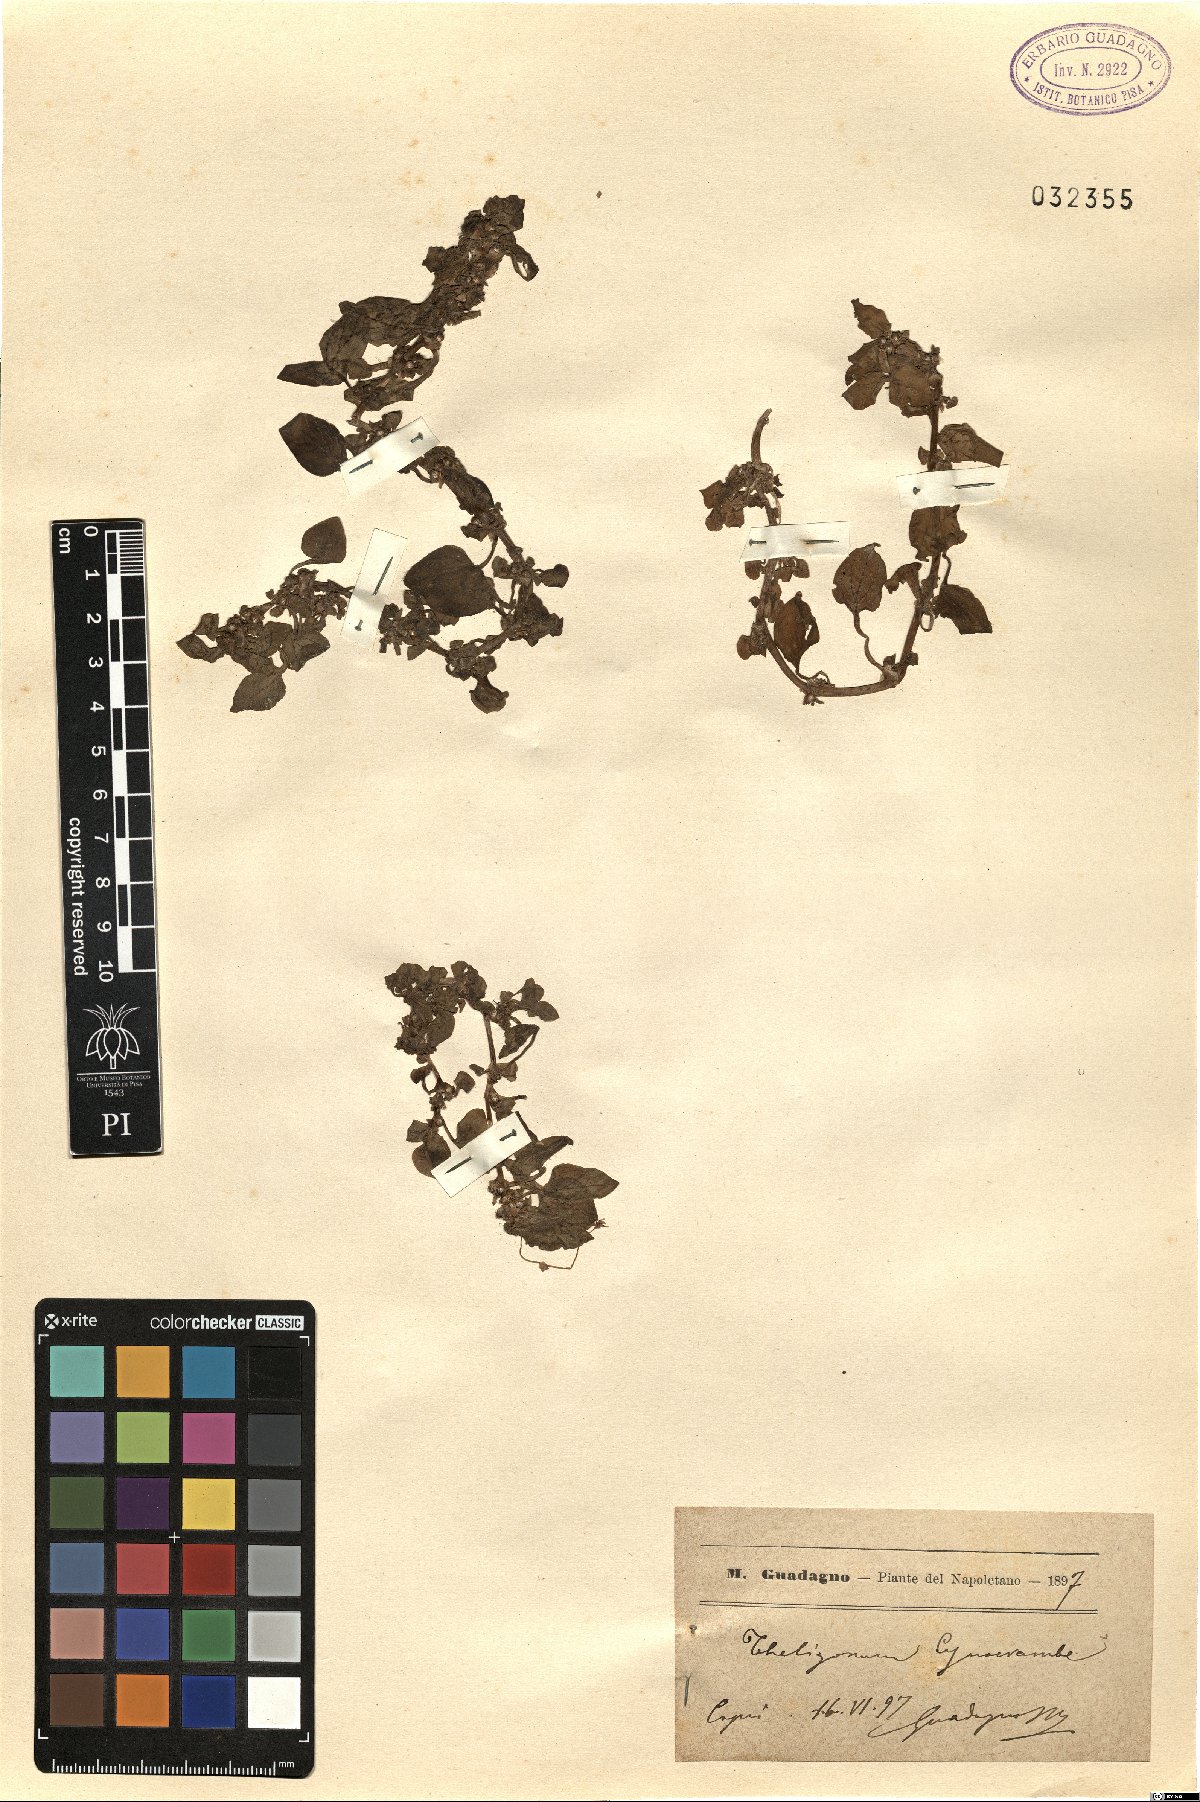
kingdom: Plantae
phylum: Tracheophyta
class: Magnoliopsida
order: Gentianales
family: Rubiaceae
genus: Theligonum
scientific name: Theligonum cynocrambe
